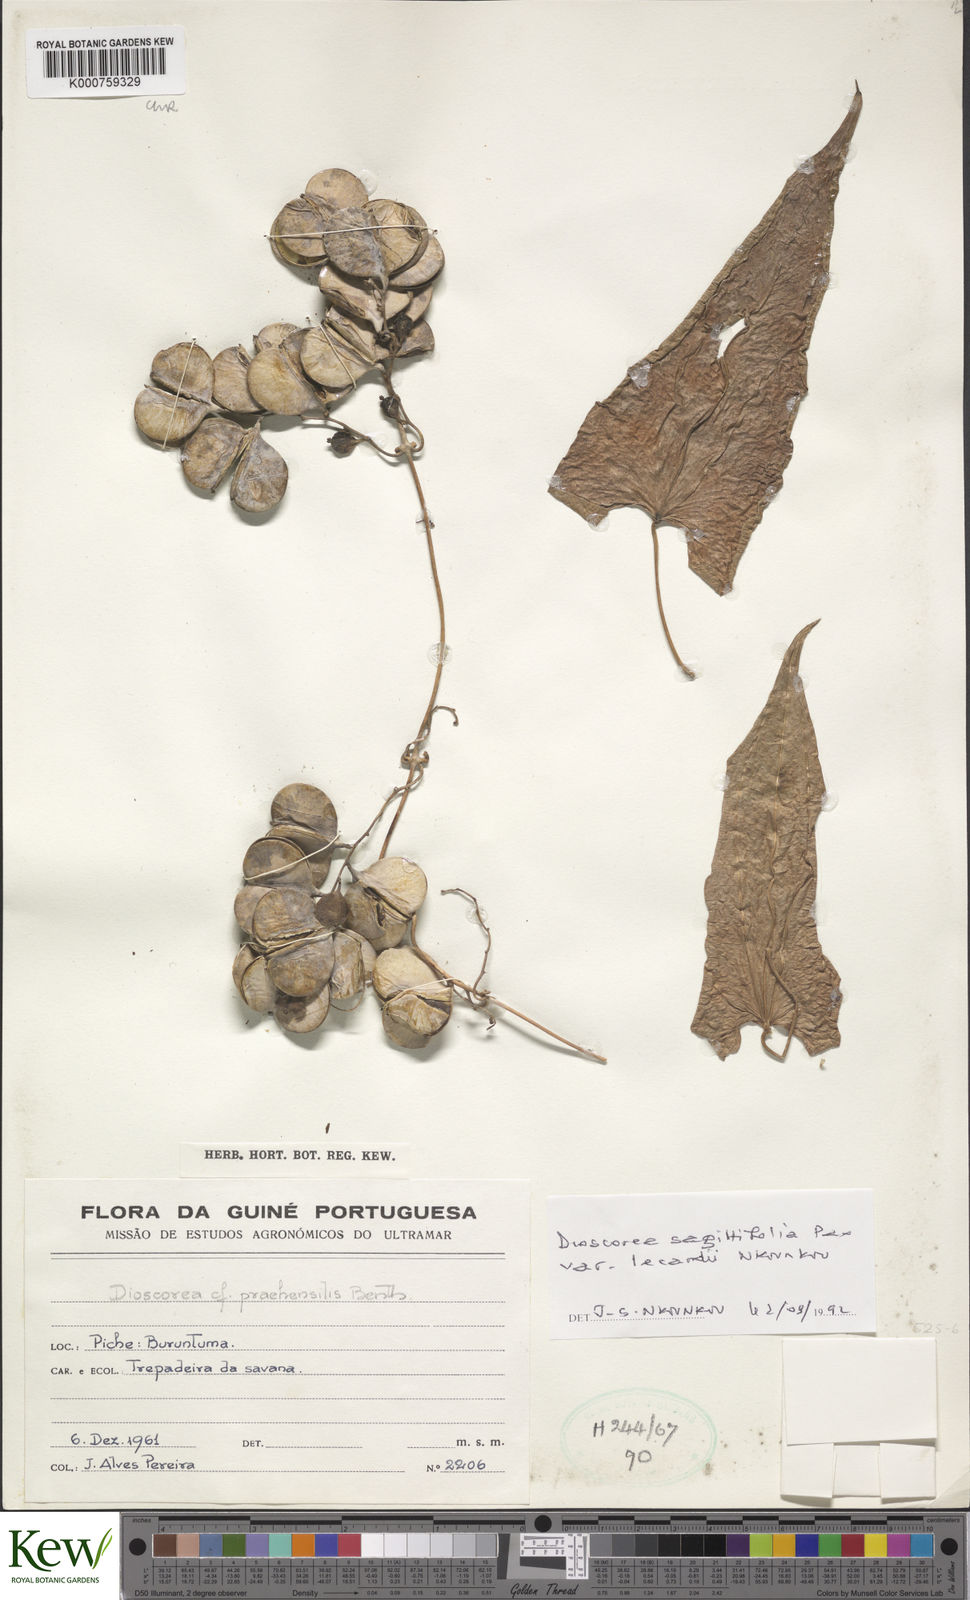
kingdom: Plantae
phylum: Tracheophyta
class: Liliopsida
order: Dioscoreales
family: Dioscoreaceae
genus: Dioscorea
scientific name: Dioscorea sagittifolia
